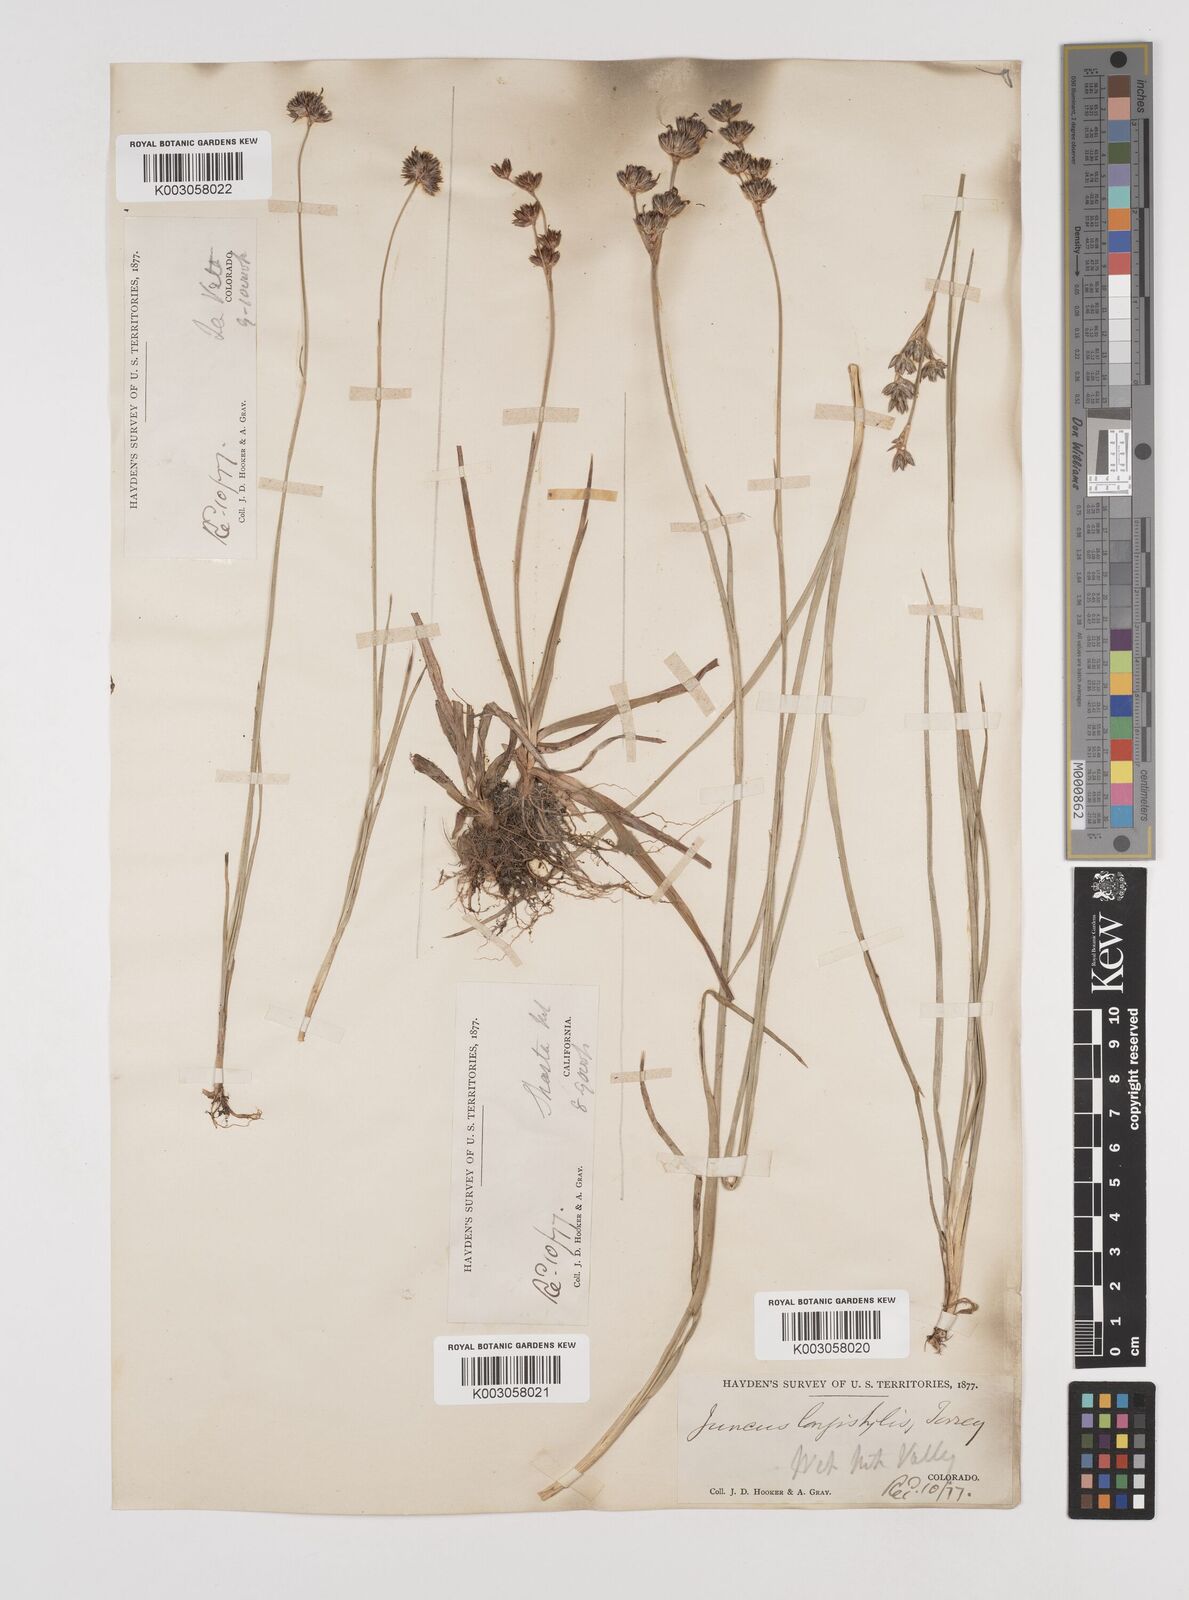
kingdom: Plantae
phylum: Tracheophyta
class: Liliopsida
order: Poales
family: Juncaceae
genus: Juncus
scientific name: Juncus longistylis
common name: Long-style rush
